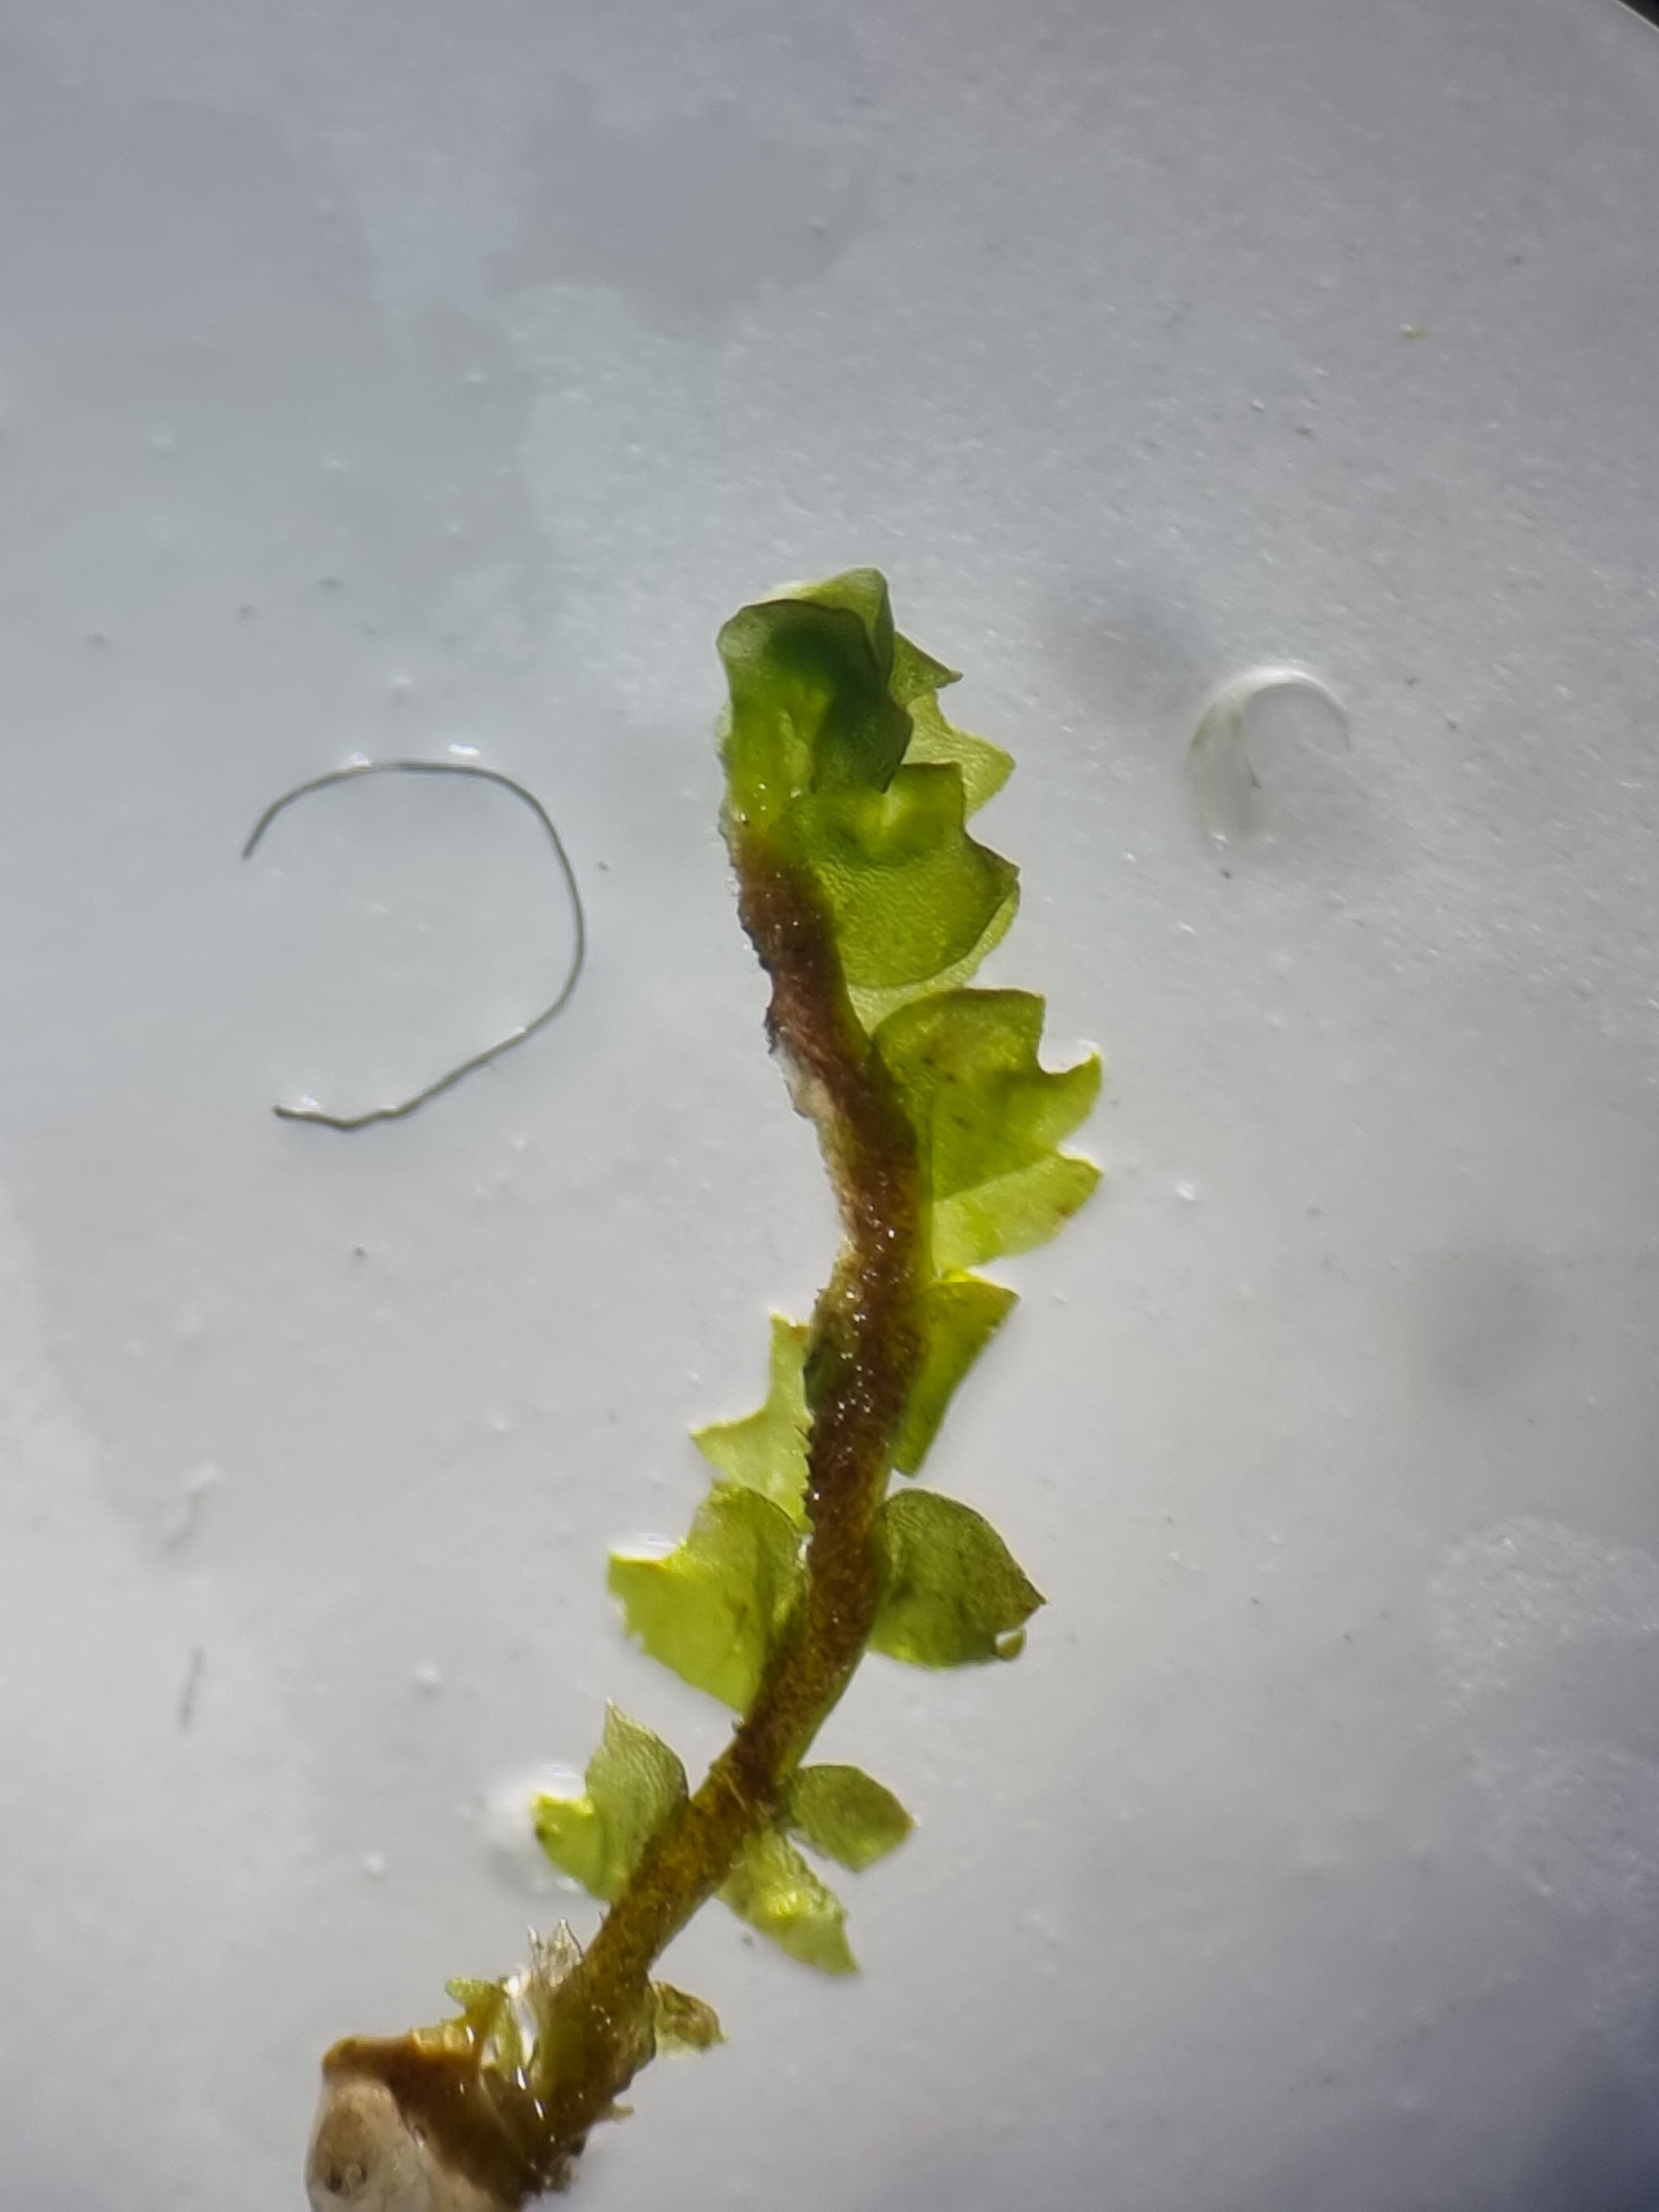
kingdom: Plantae
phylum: Marchantiophyta
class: Jungermanniopsida
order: Jungermanniales
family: Anastrophyllaceae
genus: Barbilophozia
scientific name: Barbilophozia barbata
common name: Skægget flerfligmos
